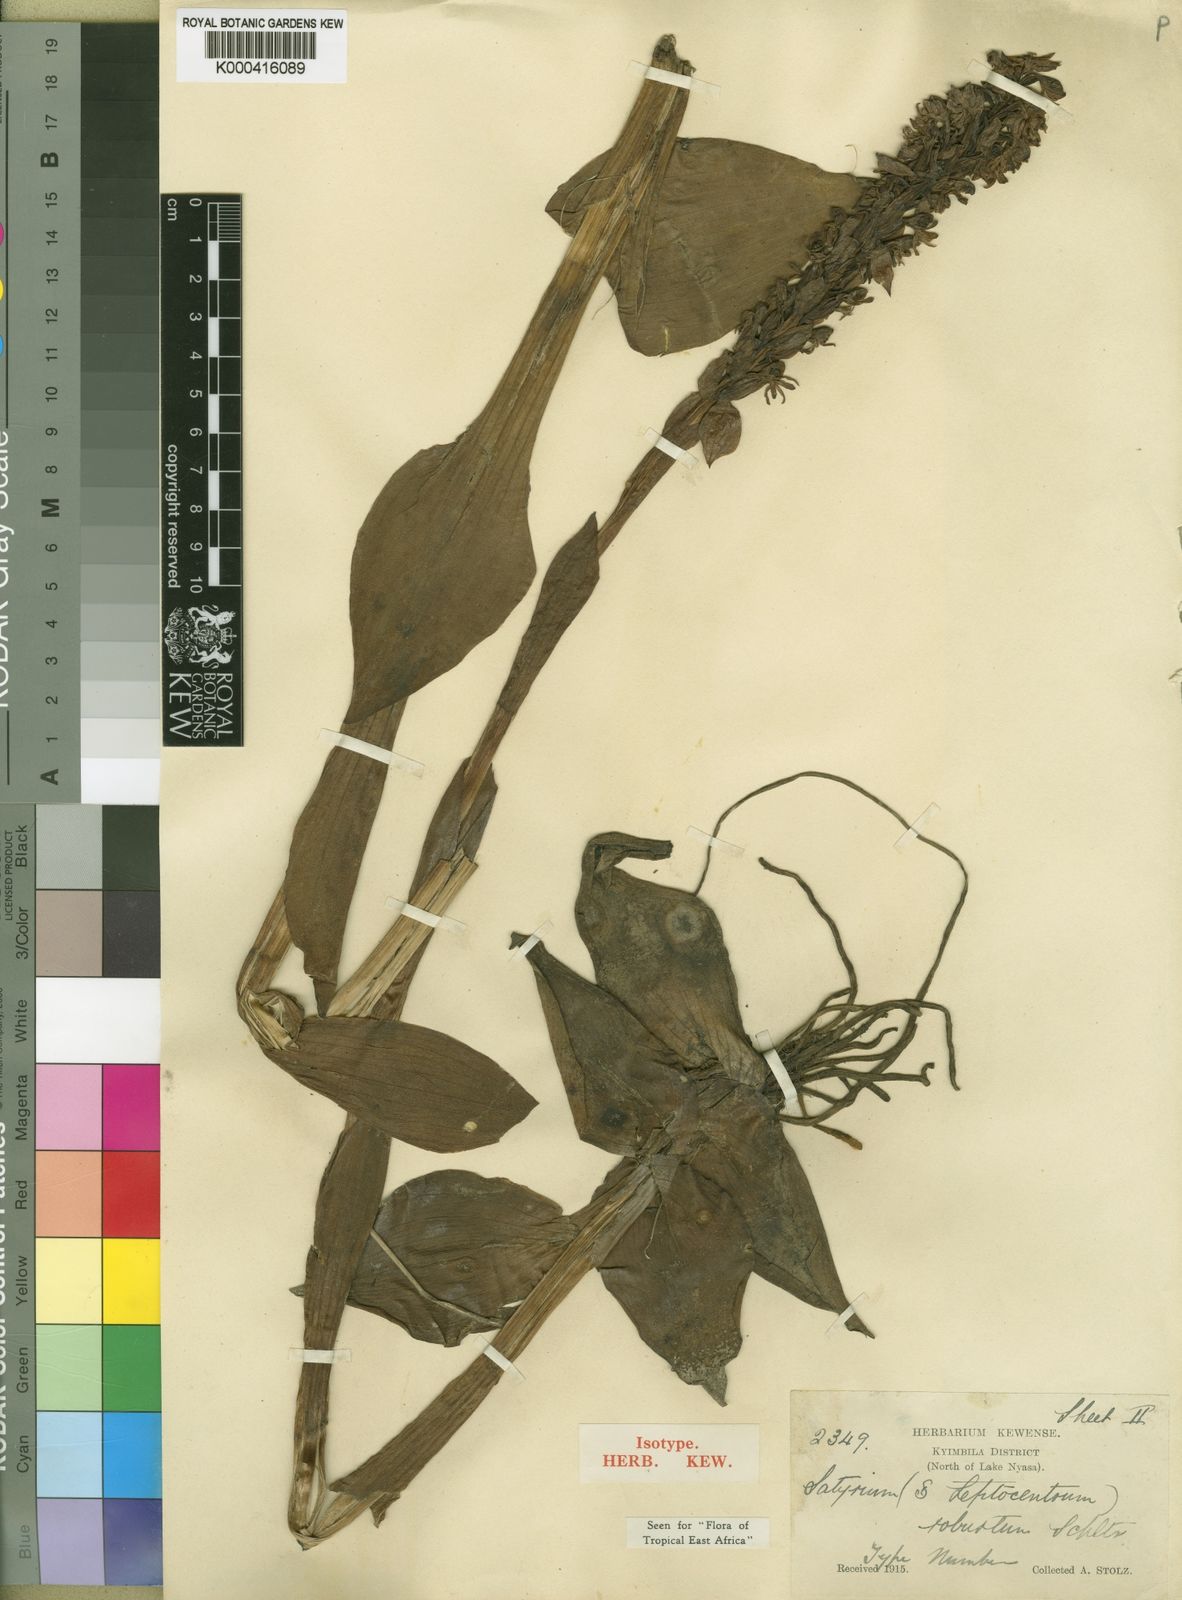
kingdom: Plantae
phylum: Tracheophyta
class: Liliopsida
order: Asparagales
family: Orchidaceae
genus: Satyrium
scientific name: Satyrium robustum
